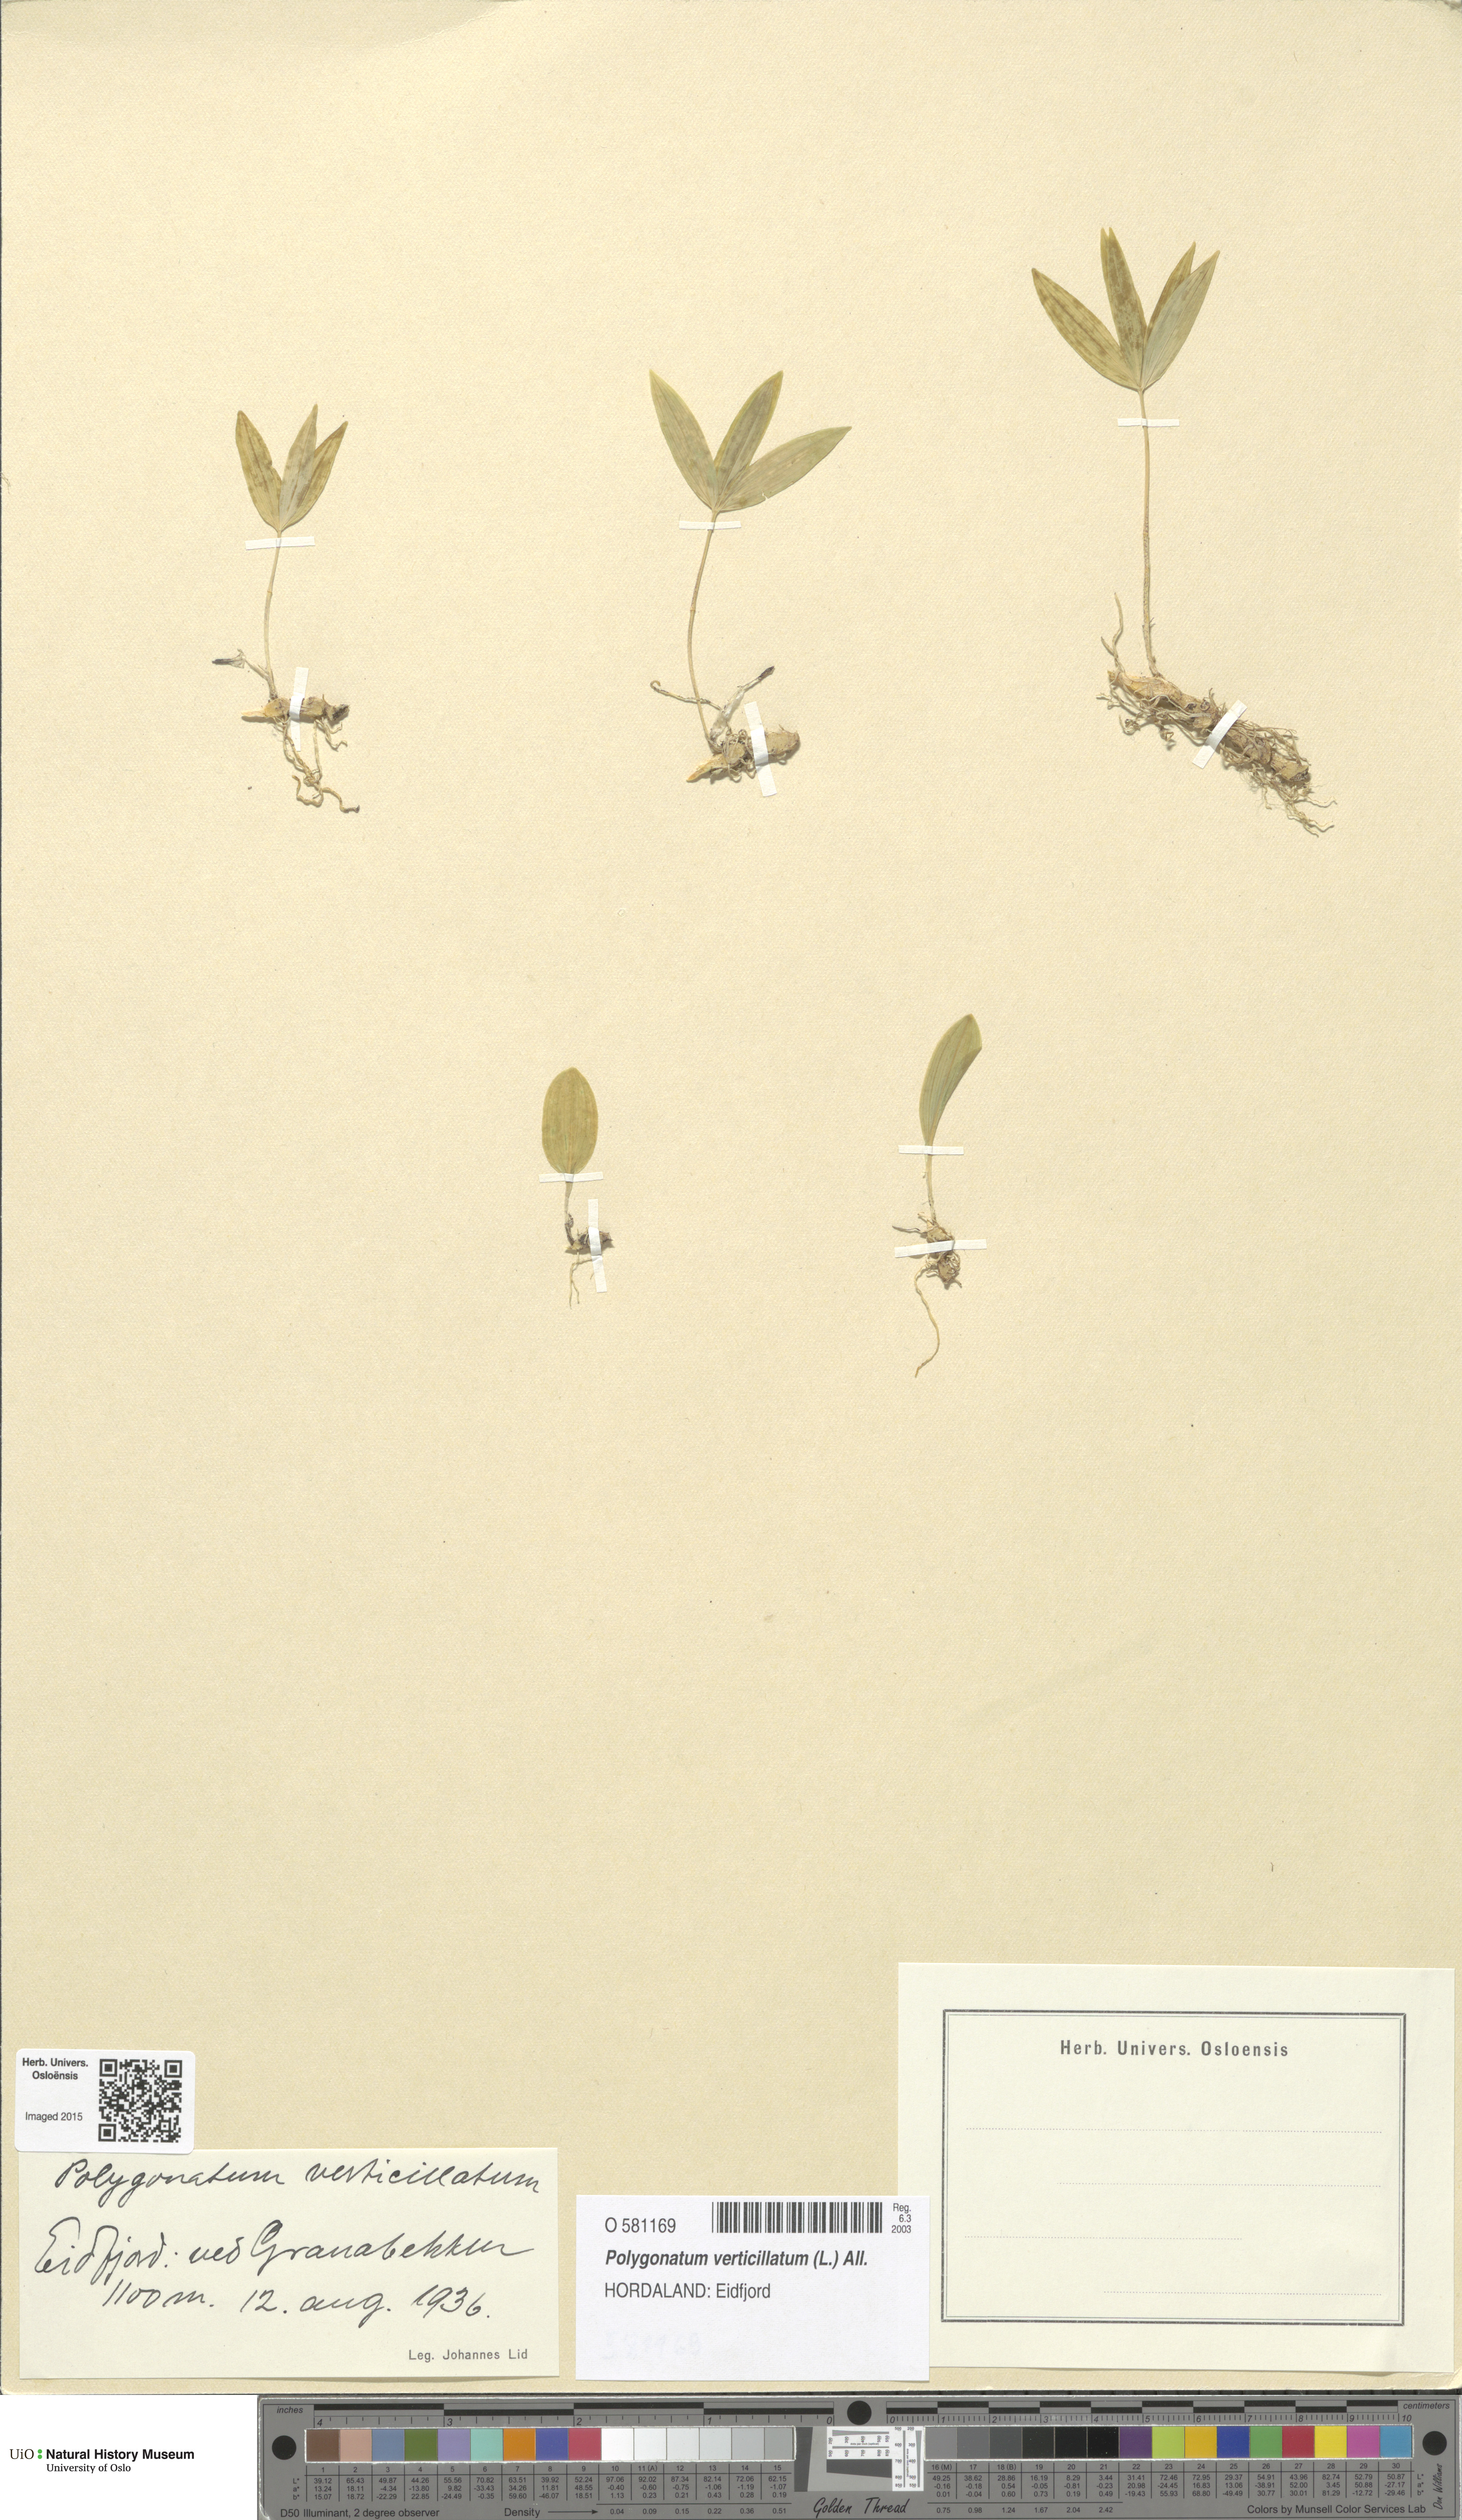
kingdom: Plantae
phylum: Tracheophyta
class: Liliopsida
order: Asparagales
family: Asparagaceae
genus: Polygonatum
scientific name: Polygonatum verticillatum
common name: Whorled solomon's-seal
